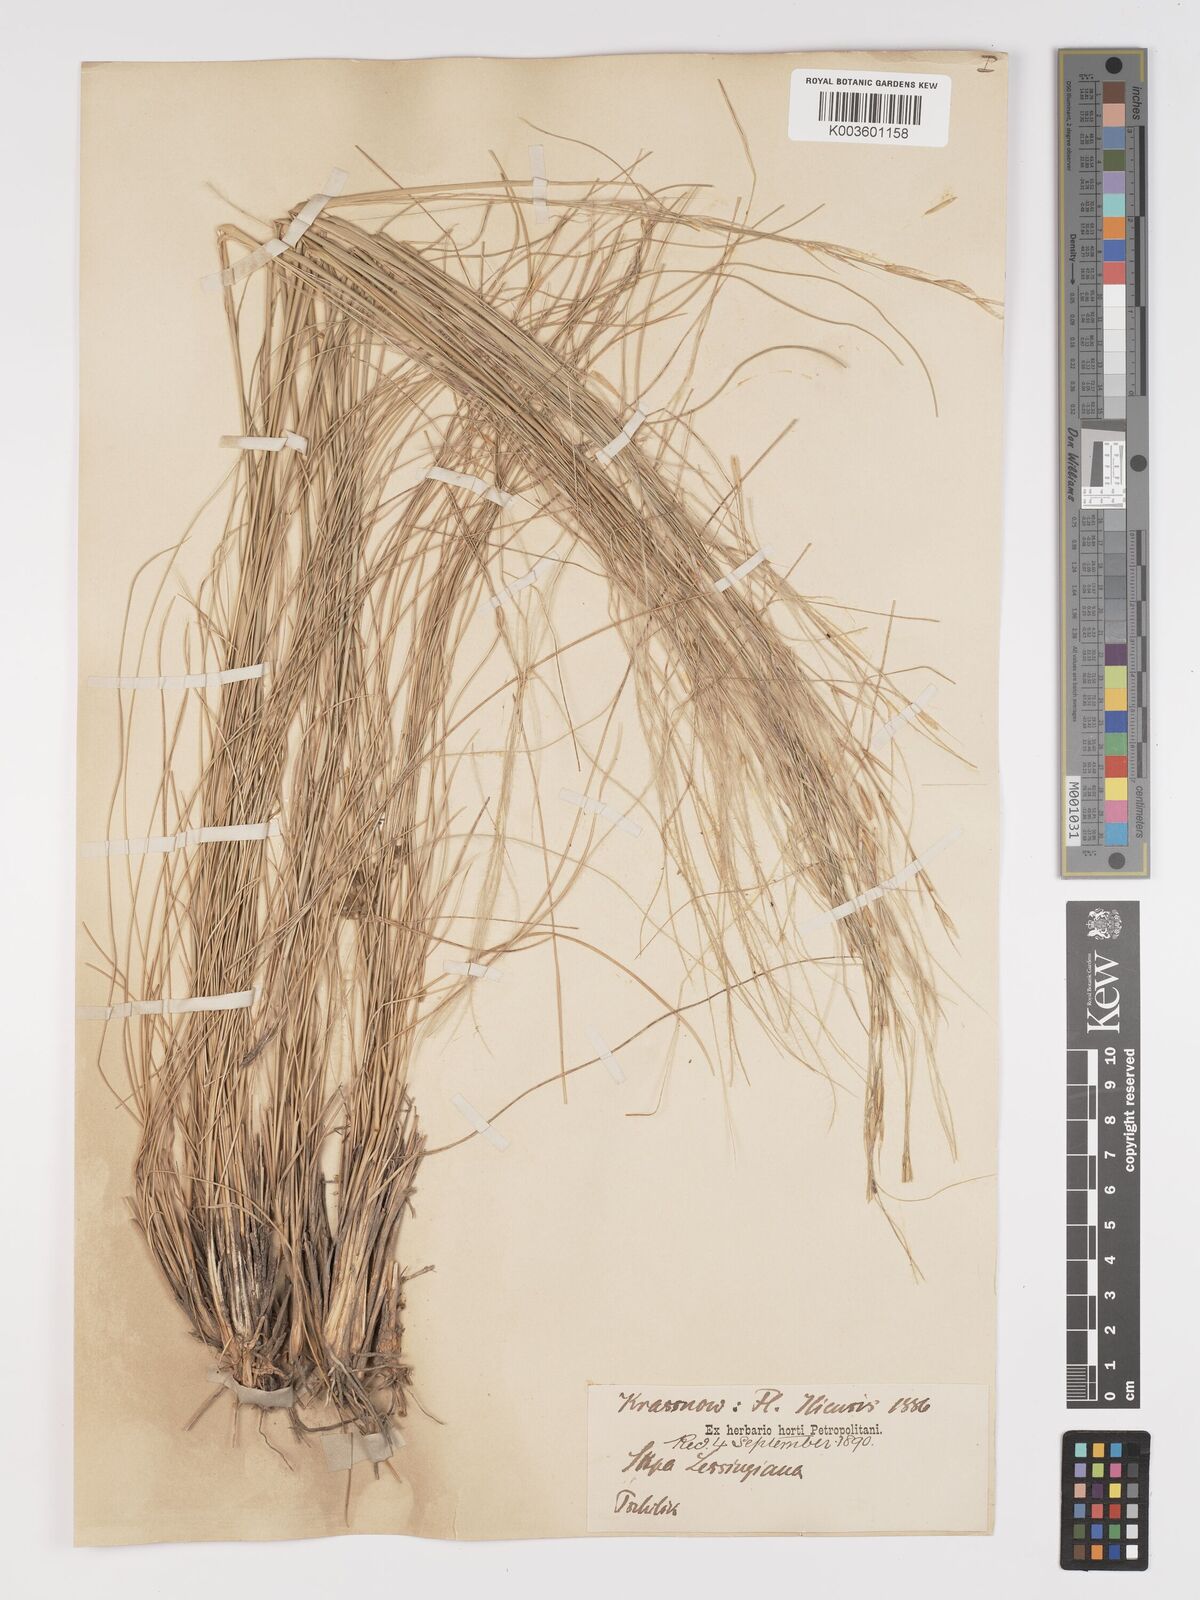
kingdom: Plantae
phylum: Tracheophyta
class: Liliopsida
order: Poales
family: Poaceae
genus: Stipa
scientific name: Stipa lessingiana
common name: Needle grass
